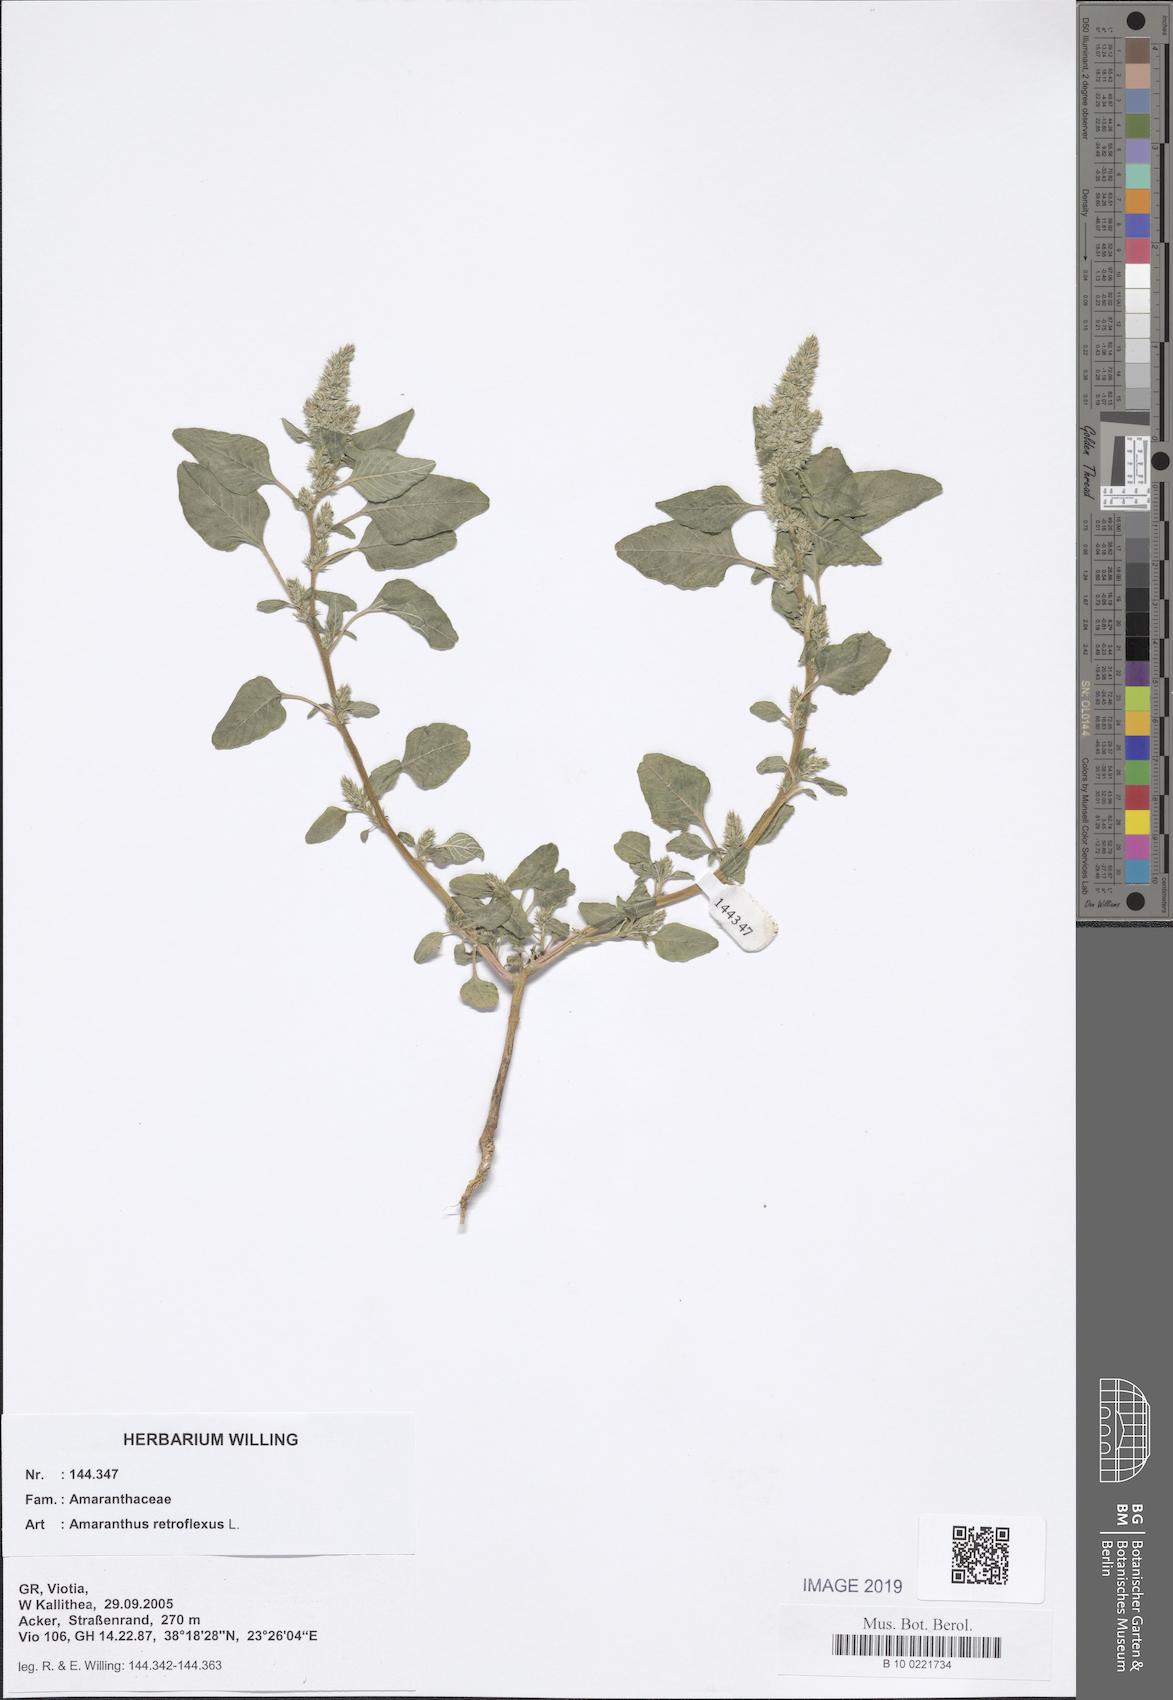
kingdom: Plantae
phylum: Tracheophyta
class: Magnoliopsida
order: Caryophyllales
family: Amaranthaceae
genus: Amaranthus
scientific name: Amaranthus retroflexus
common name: Redroot amaranth
